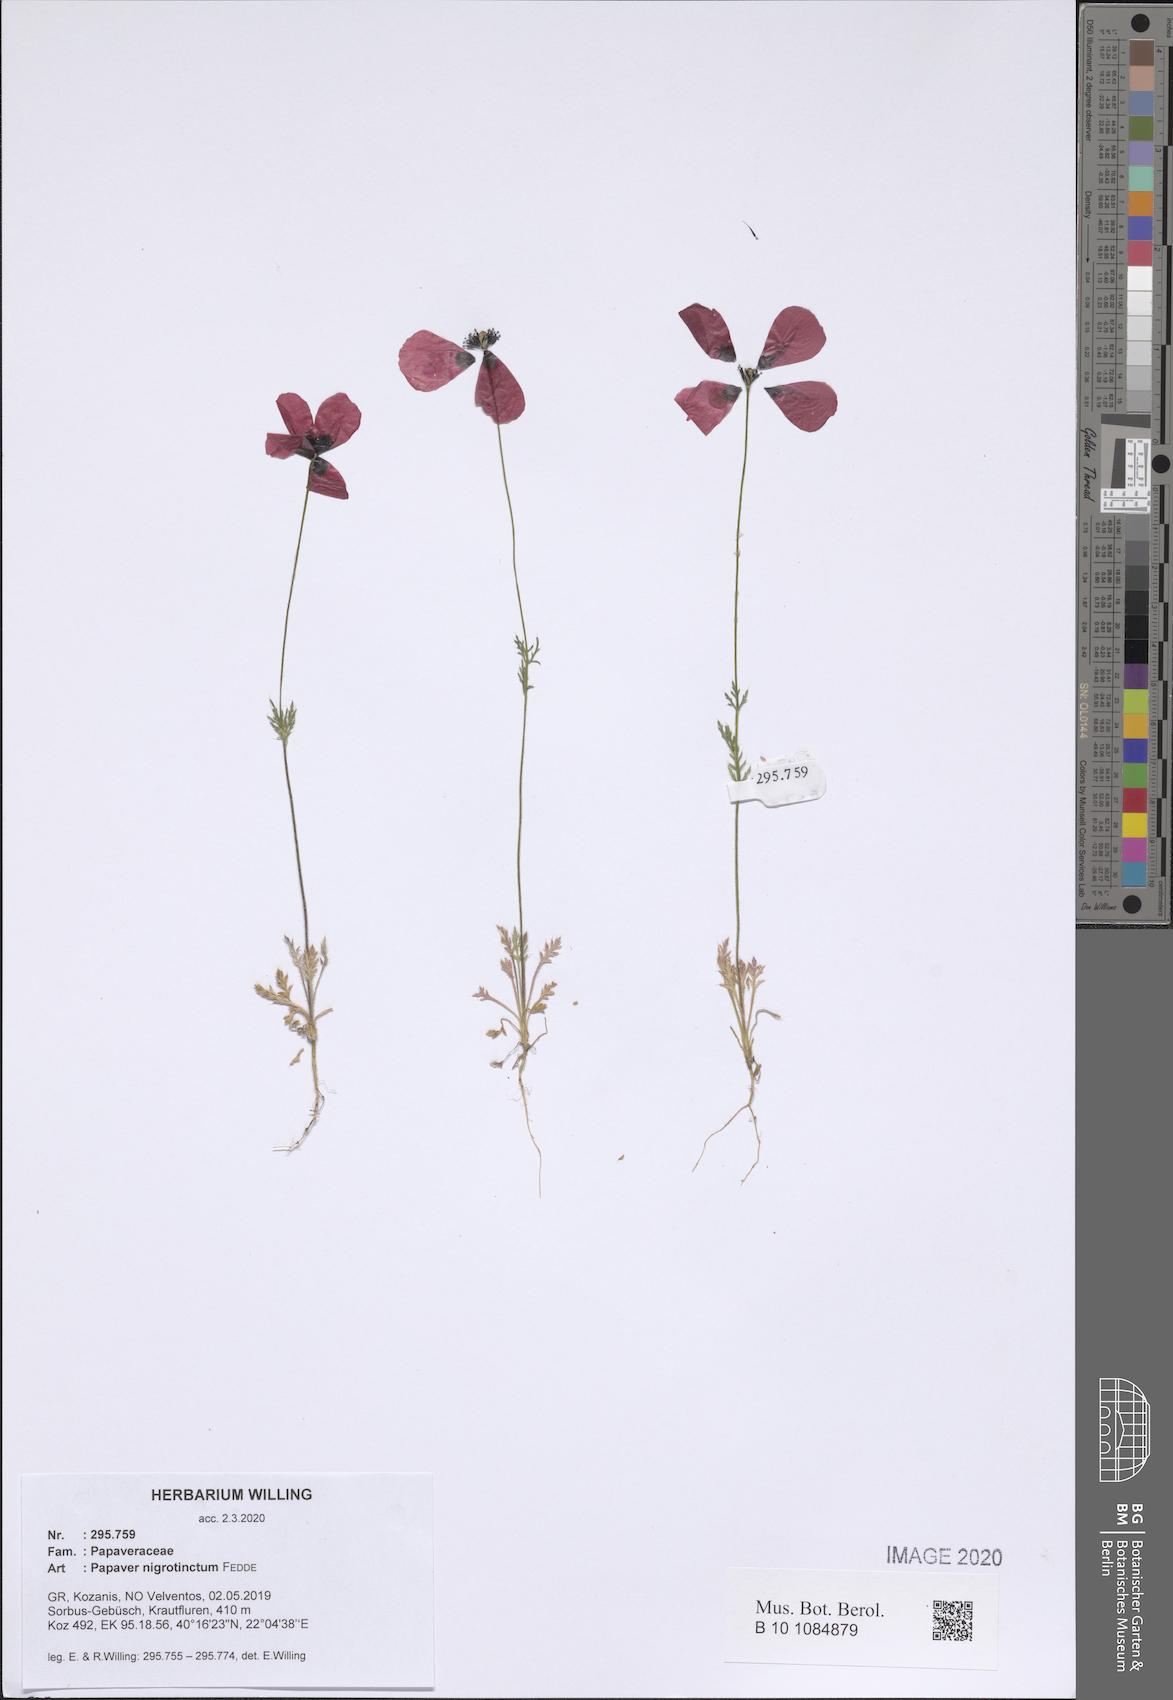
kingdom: Plantae
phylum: Tracheophyta
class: Magnoliopsida
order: Ranunculales
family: Papaveraceae
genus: Roemeria
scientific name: Roemeria nigrotincta
